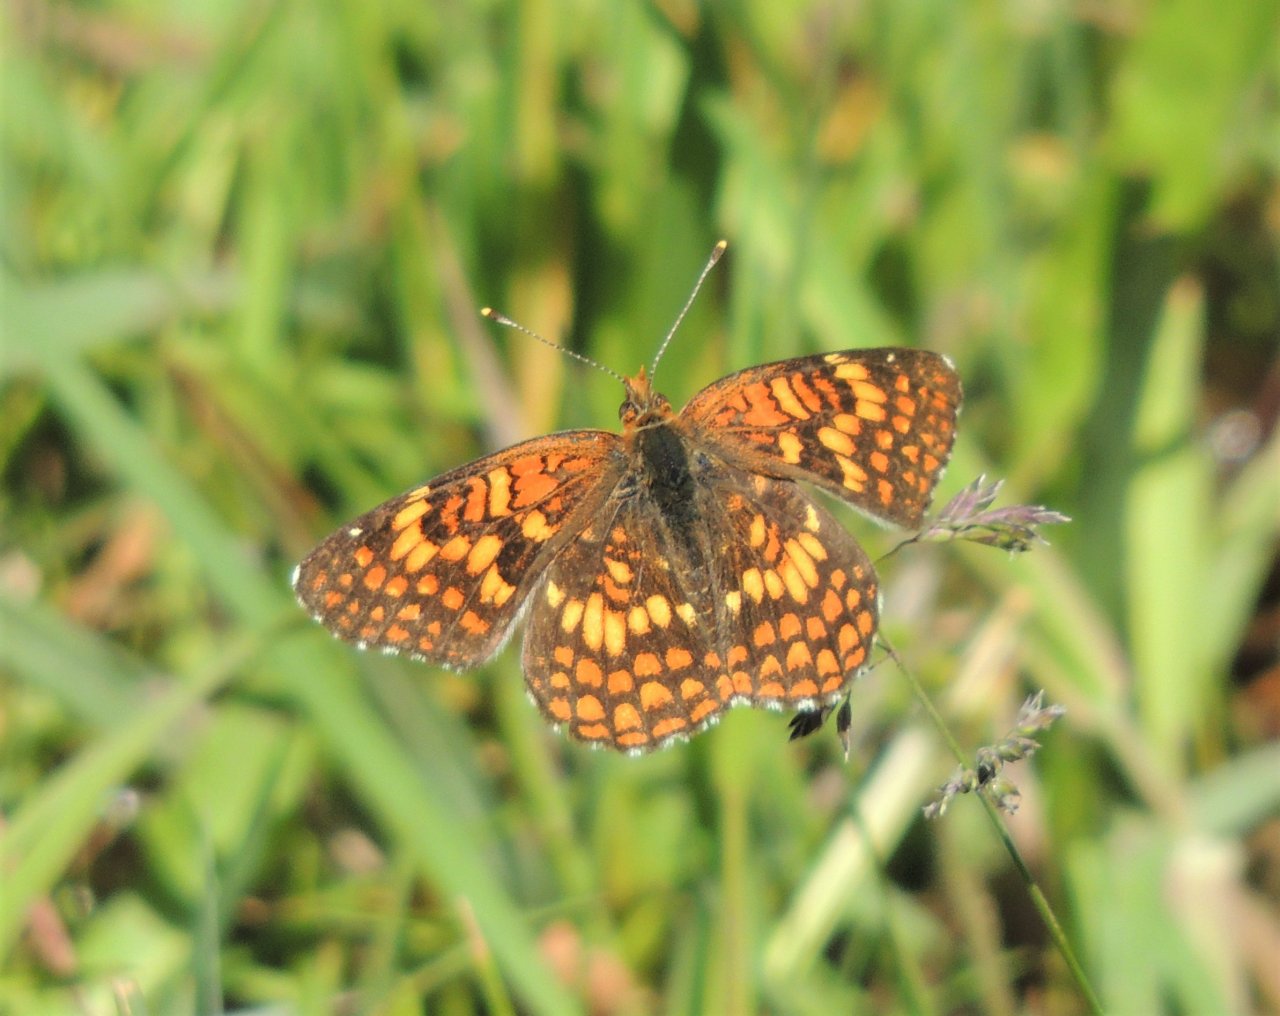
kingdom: Animalia
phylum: Arthropoda
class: Insecta
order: Lepidoptera
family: Nymphalidae
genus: Chlosyne
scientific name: Chlosyne palla
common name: Northern Checkerspot
